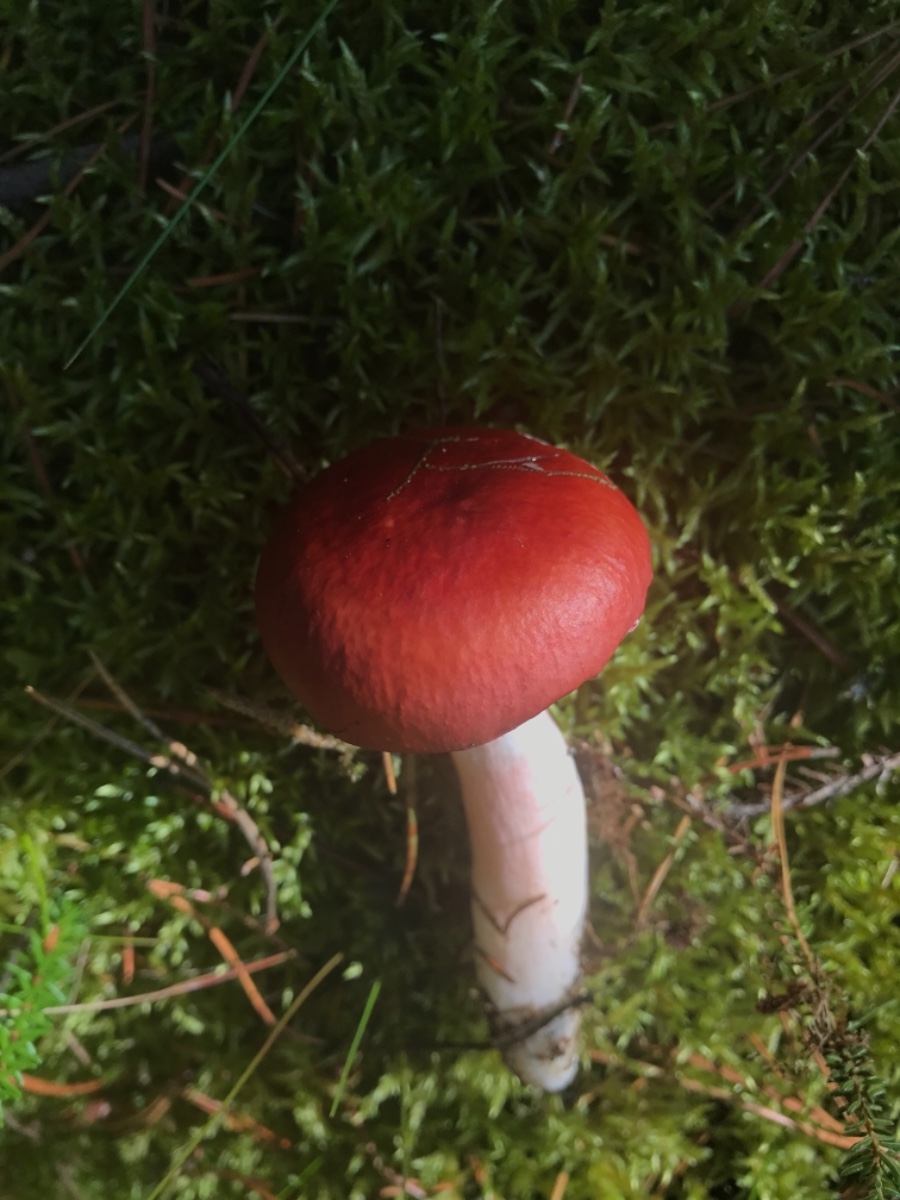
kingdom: Fungi
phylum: Basidiomycota
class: Agaricomycetes
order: Russulales
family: Russulaceae
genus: Russula
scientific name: Russula paludosa
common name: prægtig skørhat
